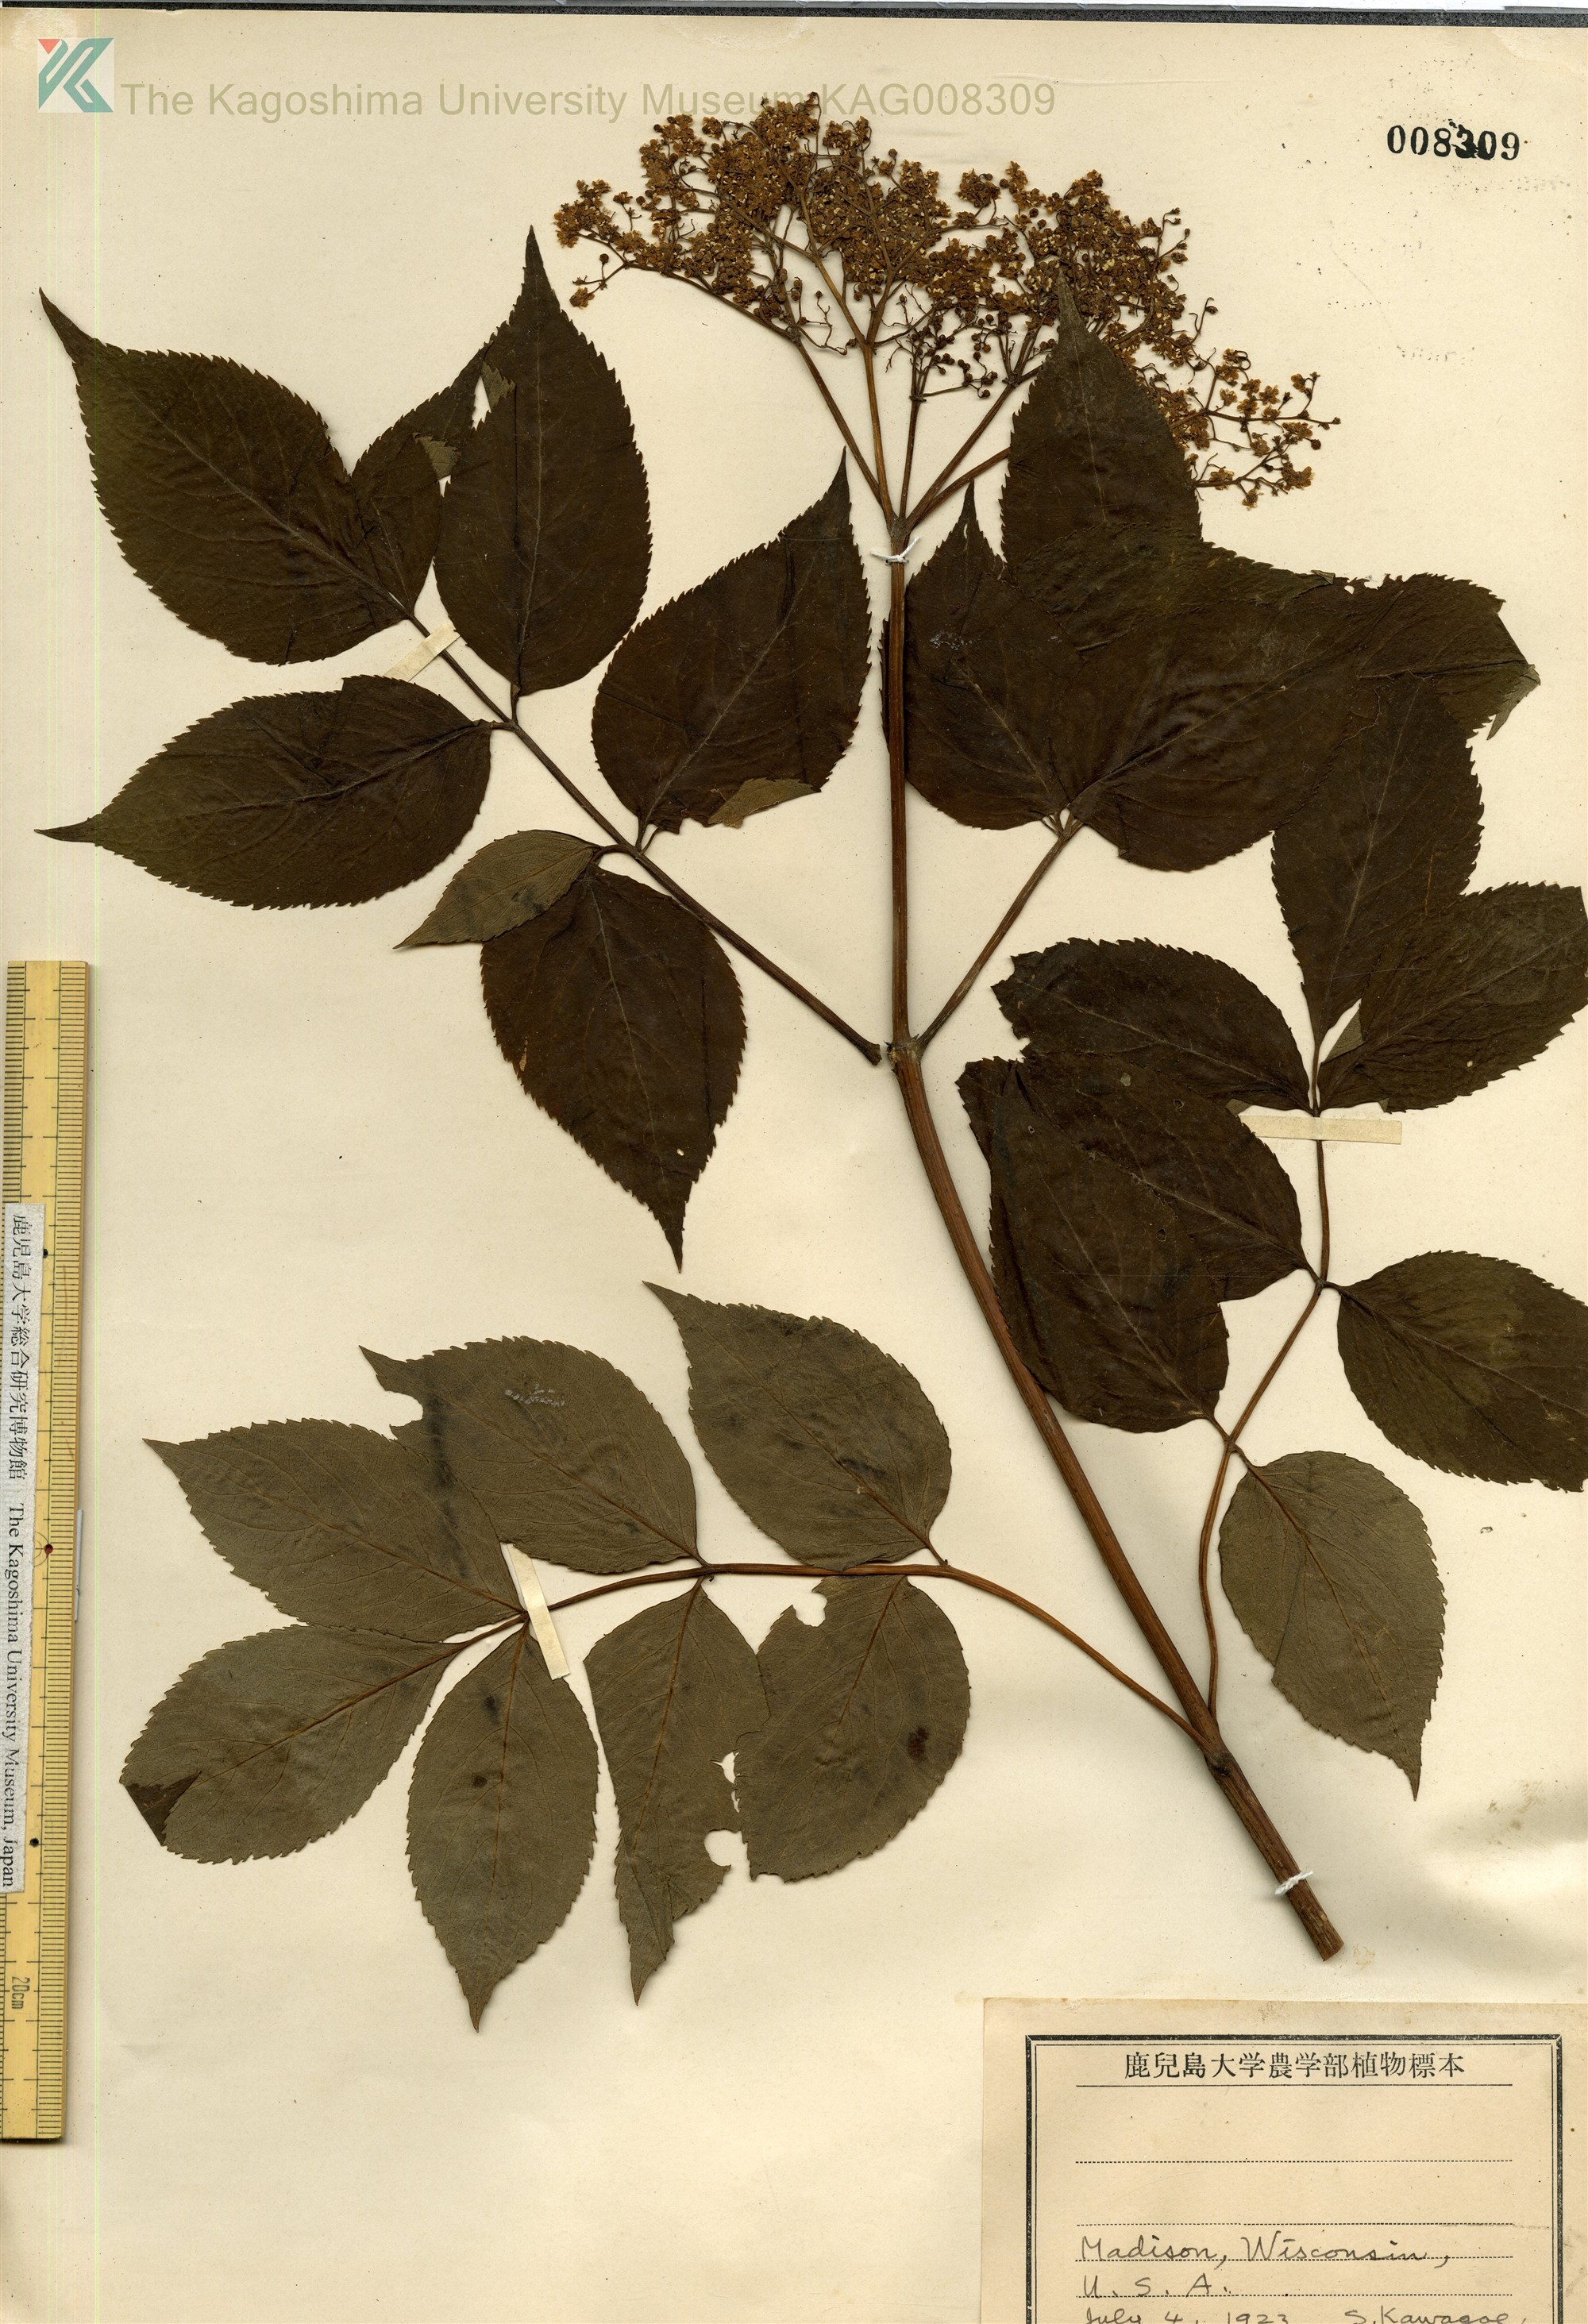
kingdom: Plantae
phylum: Tracheophyta
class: Magnoliopsida
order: Dipsacales
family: Viburnaceae
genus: Sambucus
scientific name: Sambucus canadensis
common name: American elder
